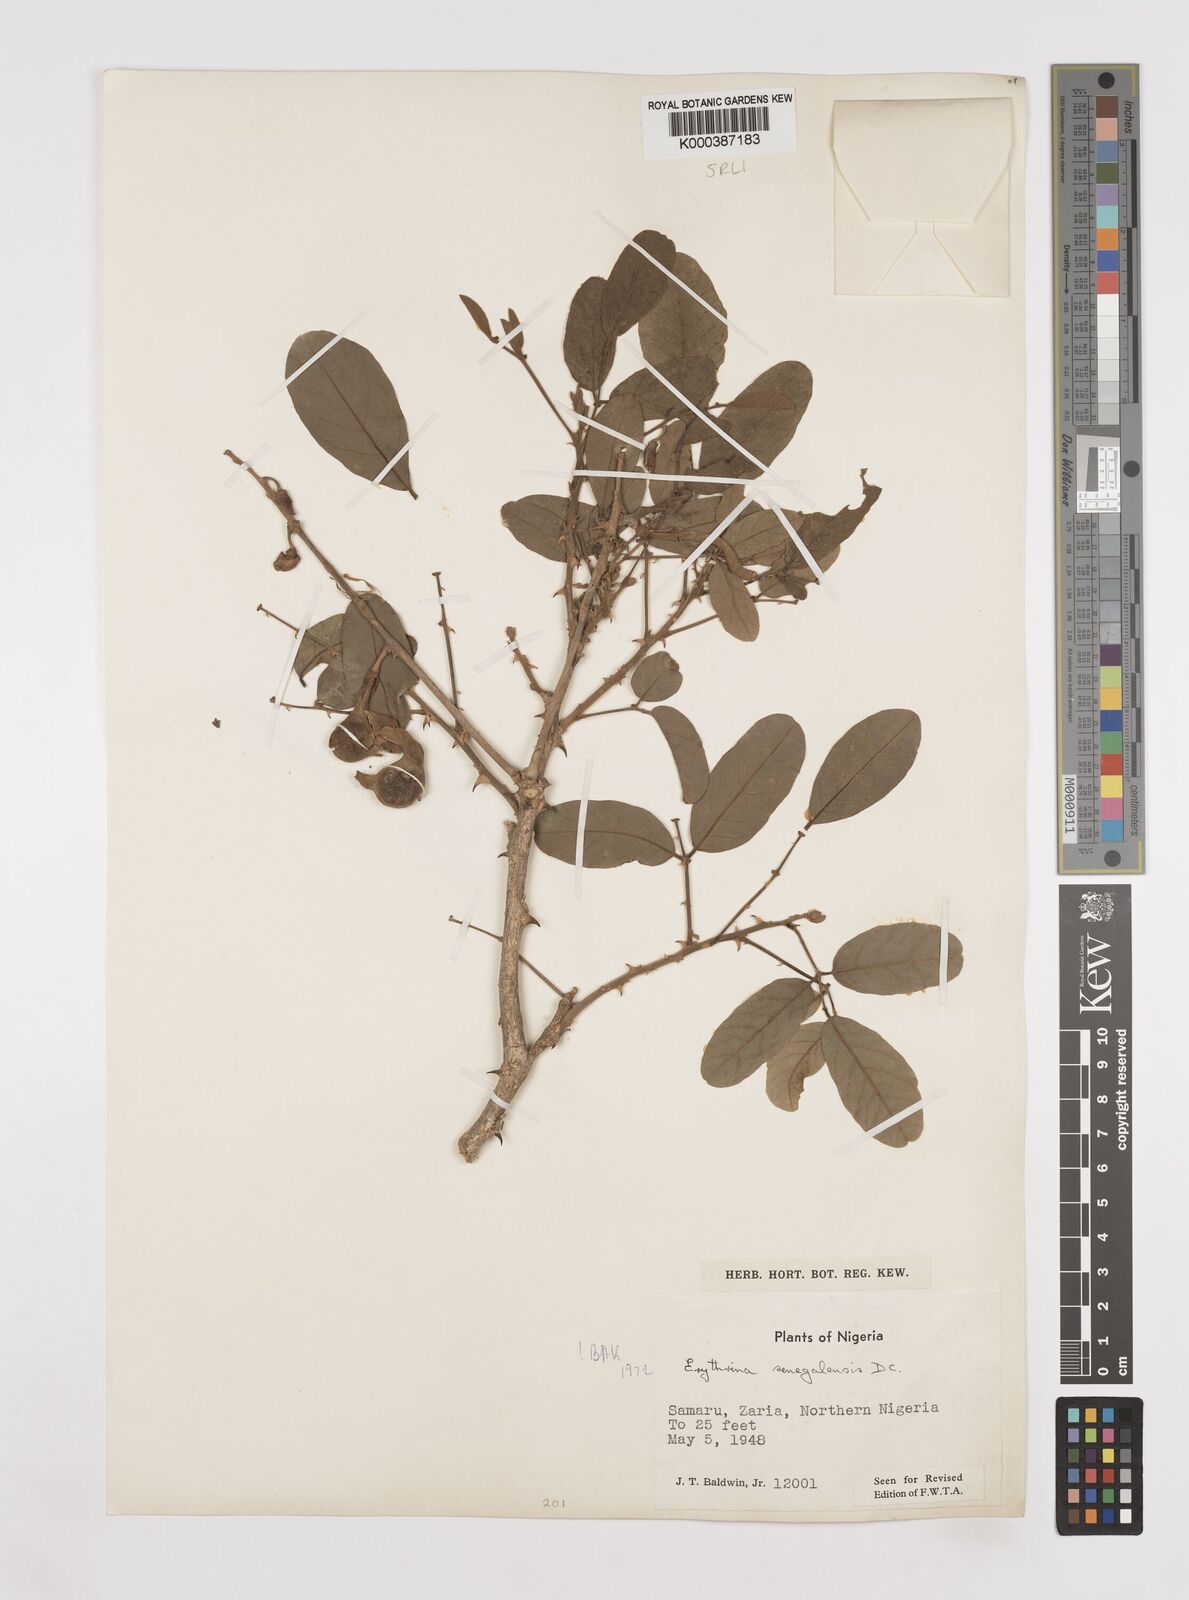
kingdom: Plantae
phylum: Tracheophyta
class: Magnoliopsida
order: Fabales
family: Fabaceae
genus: Erythrina
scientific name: Erythrina senegalensis
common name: Senegal coraltree
